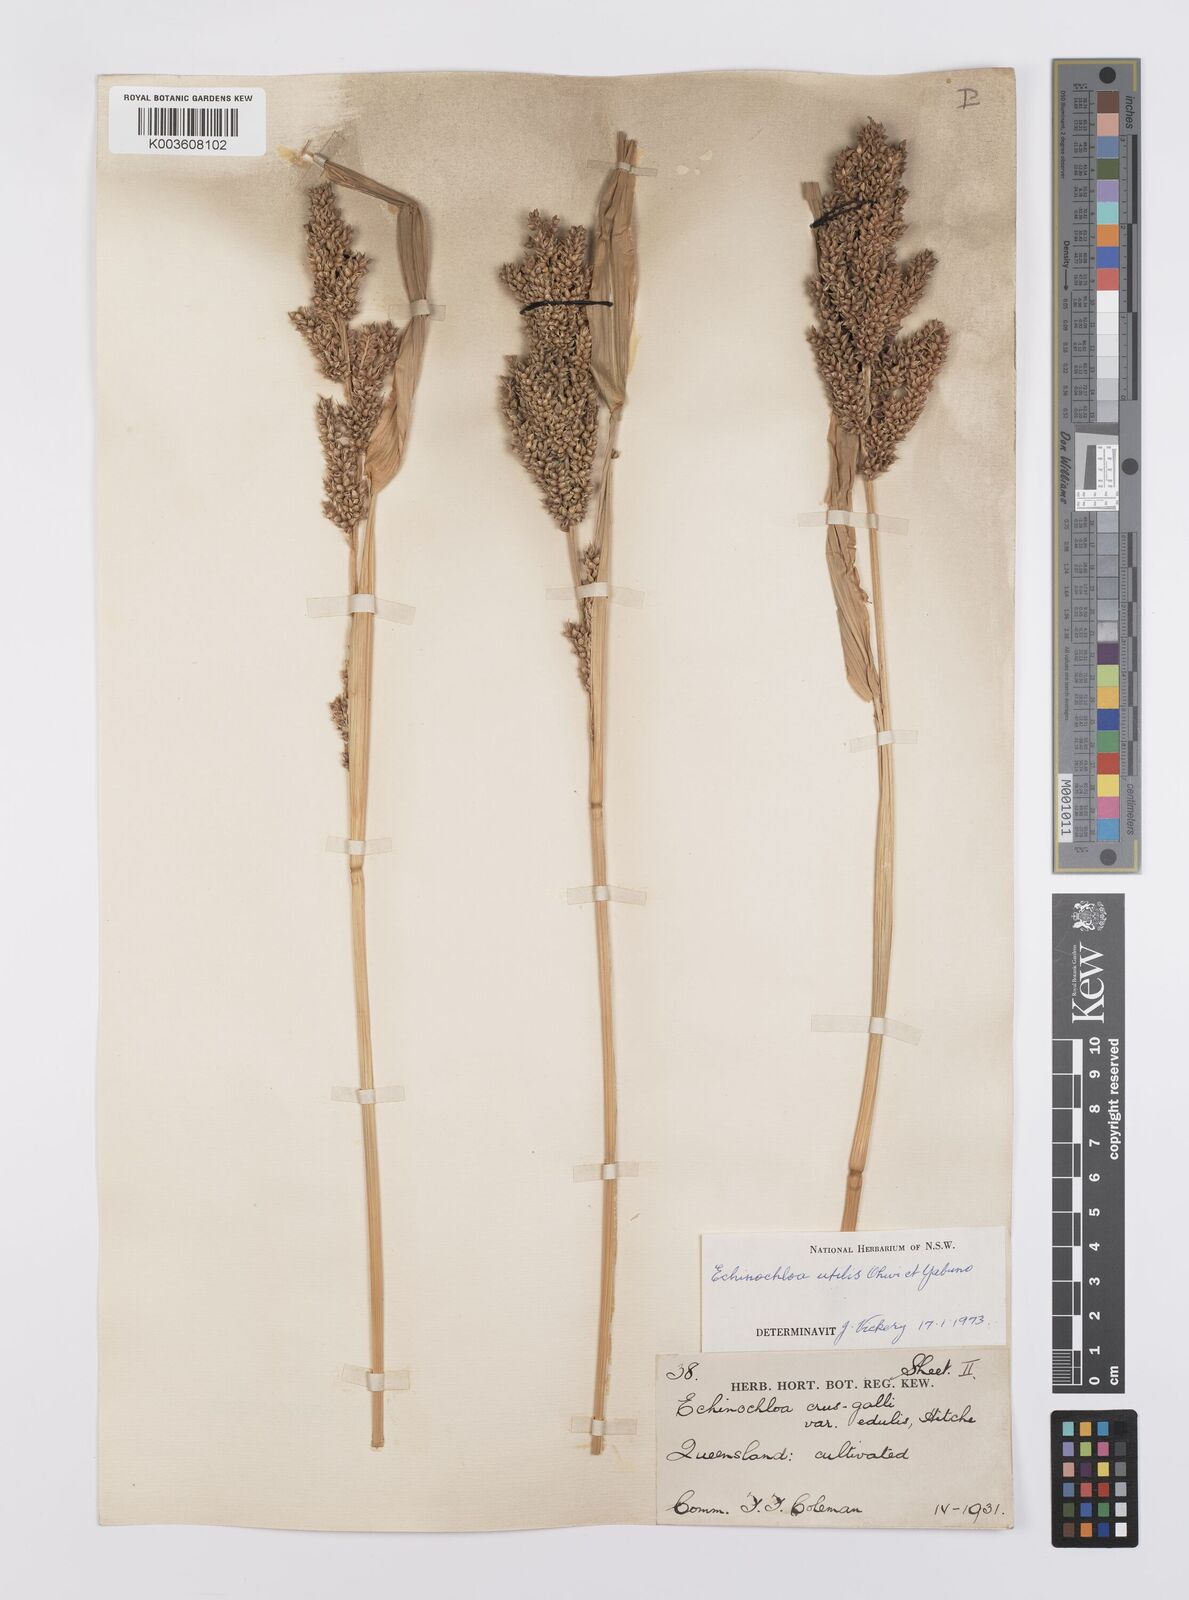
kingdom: Plantae
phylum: Tracheophyta
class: Liliopsida
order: Poales
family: Poaceae
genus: Echinochloa
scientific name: Echinochloa crus-galli
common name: Cockspur
